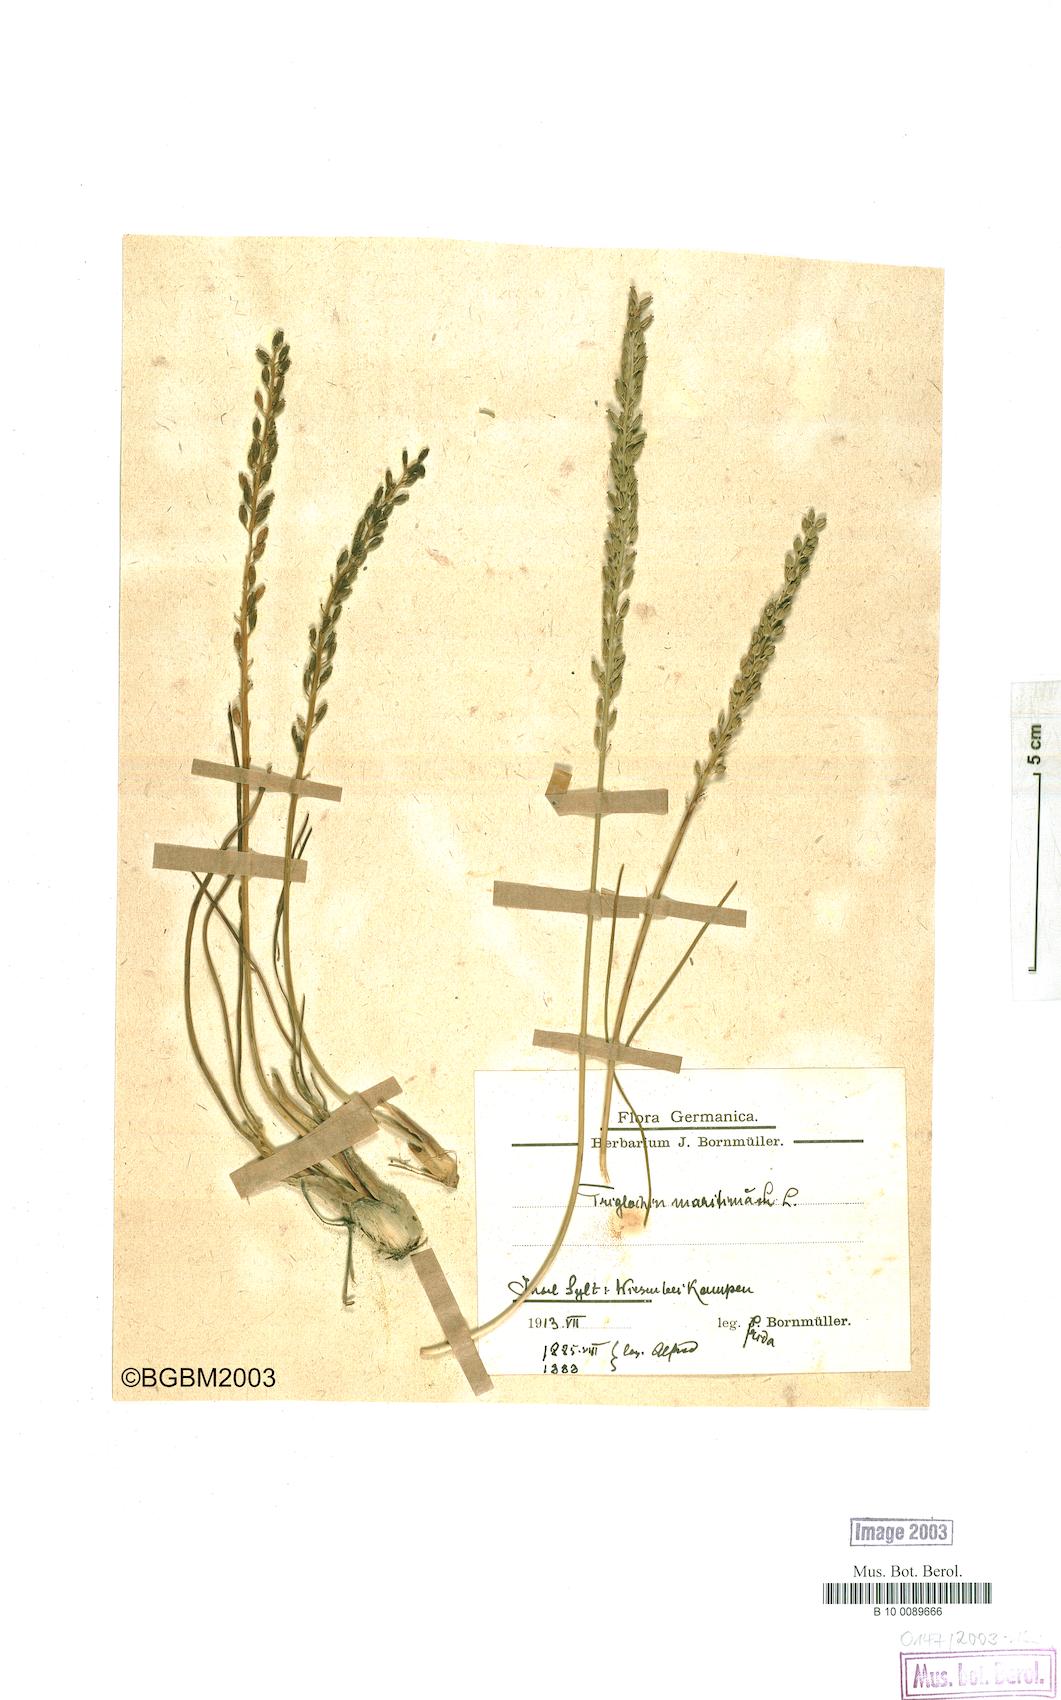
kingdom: Plantae
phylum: Tracheophyta
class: Liliopsida
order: Alismatales
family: Juncaginaceae
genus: Triglochin
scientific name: Triglochin maritima
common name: Sea arrowgrass
